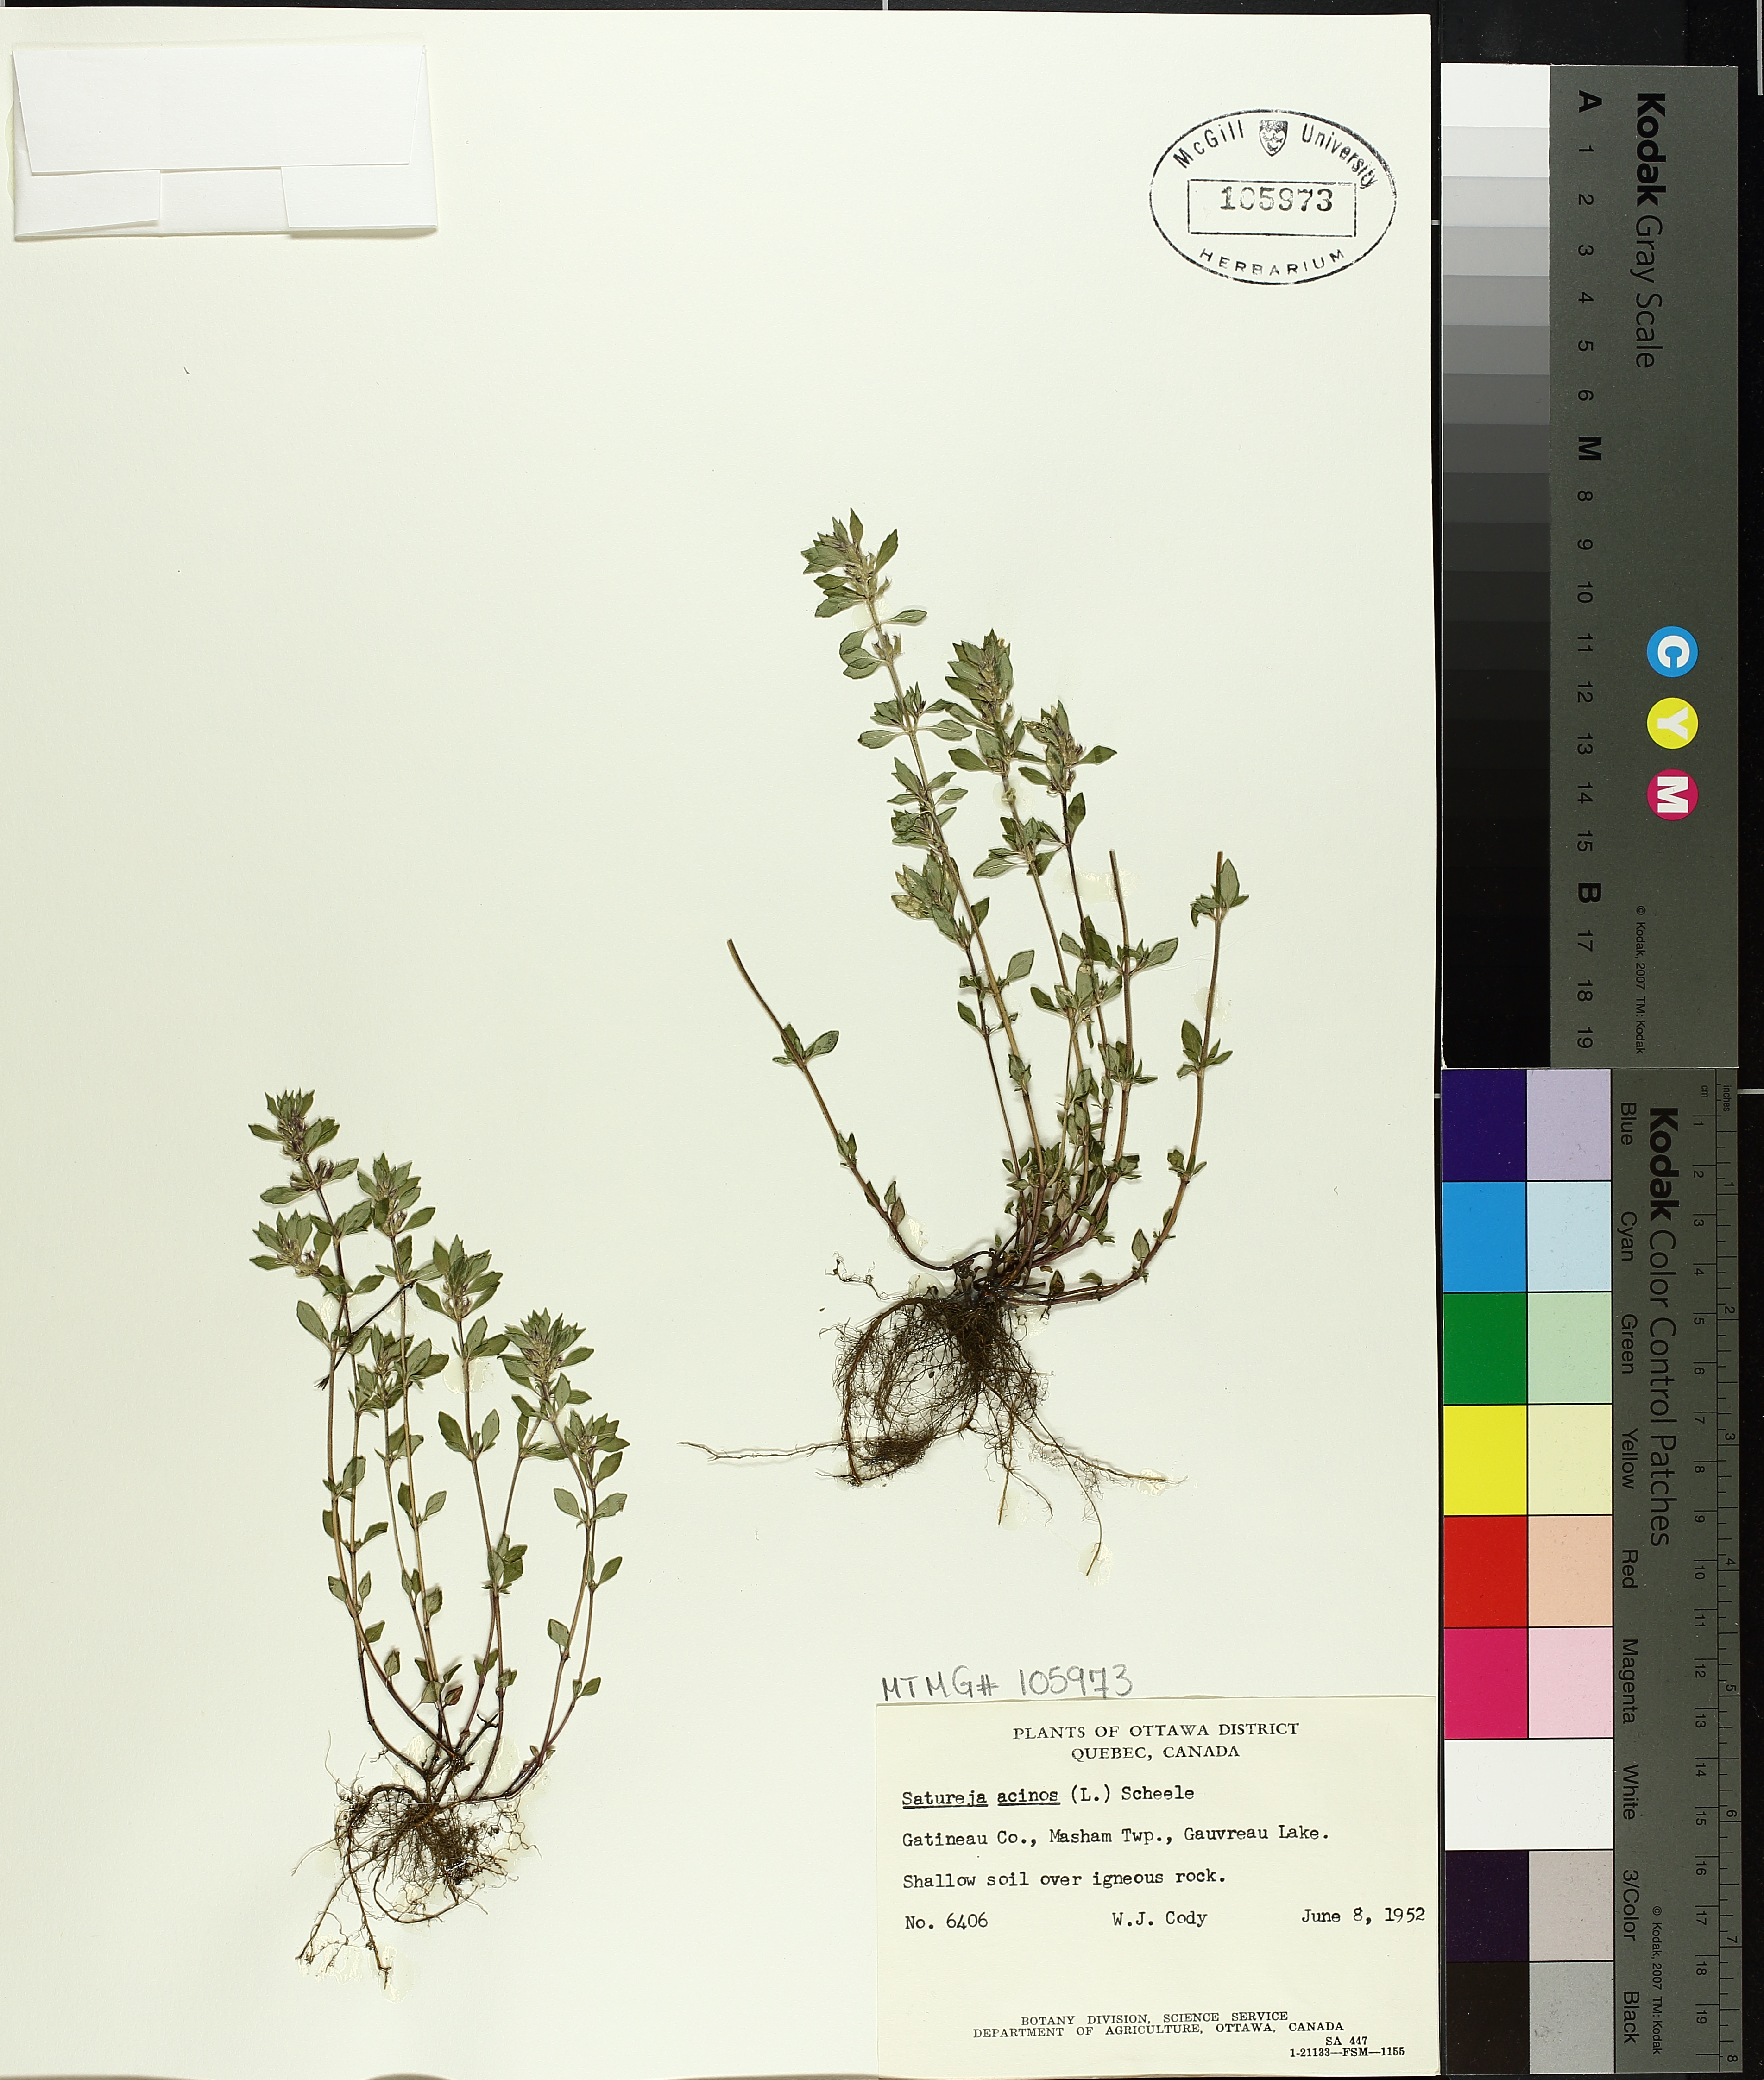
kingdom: Plantae
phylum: Tracheophyta
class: Magnoliopsida
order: Lamiales
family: Lamiaceae
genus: Clinopodium
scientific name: Clinopodium acinos
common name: Basil thyme
